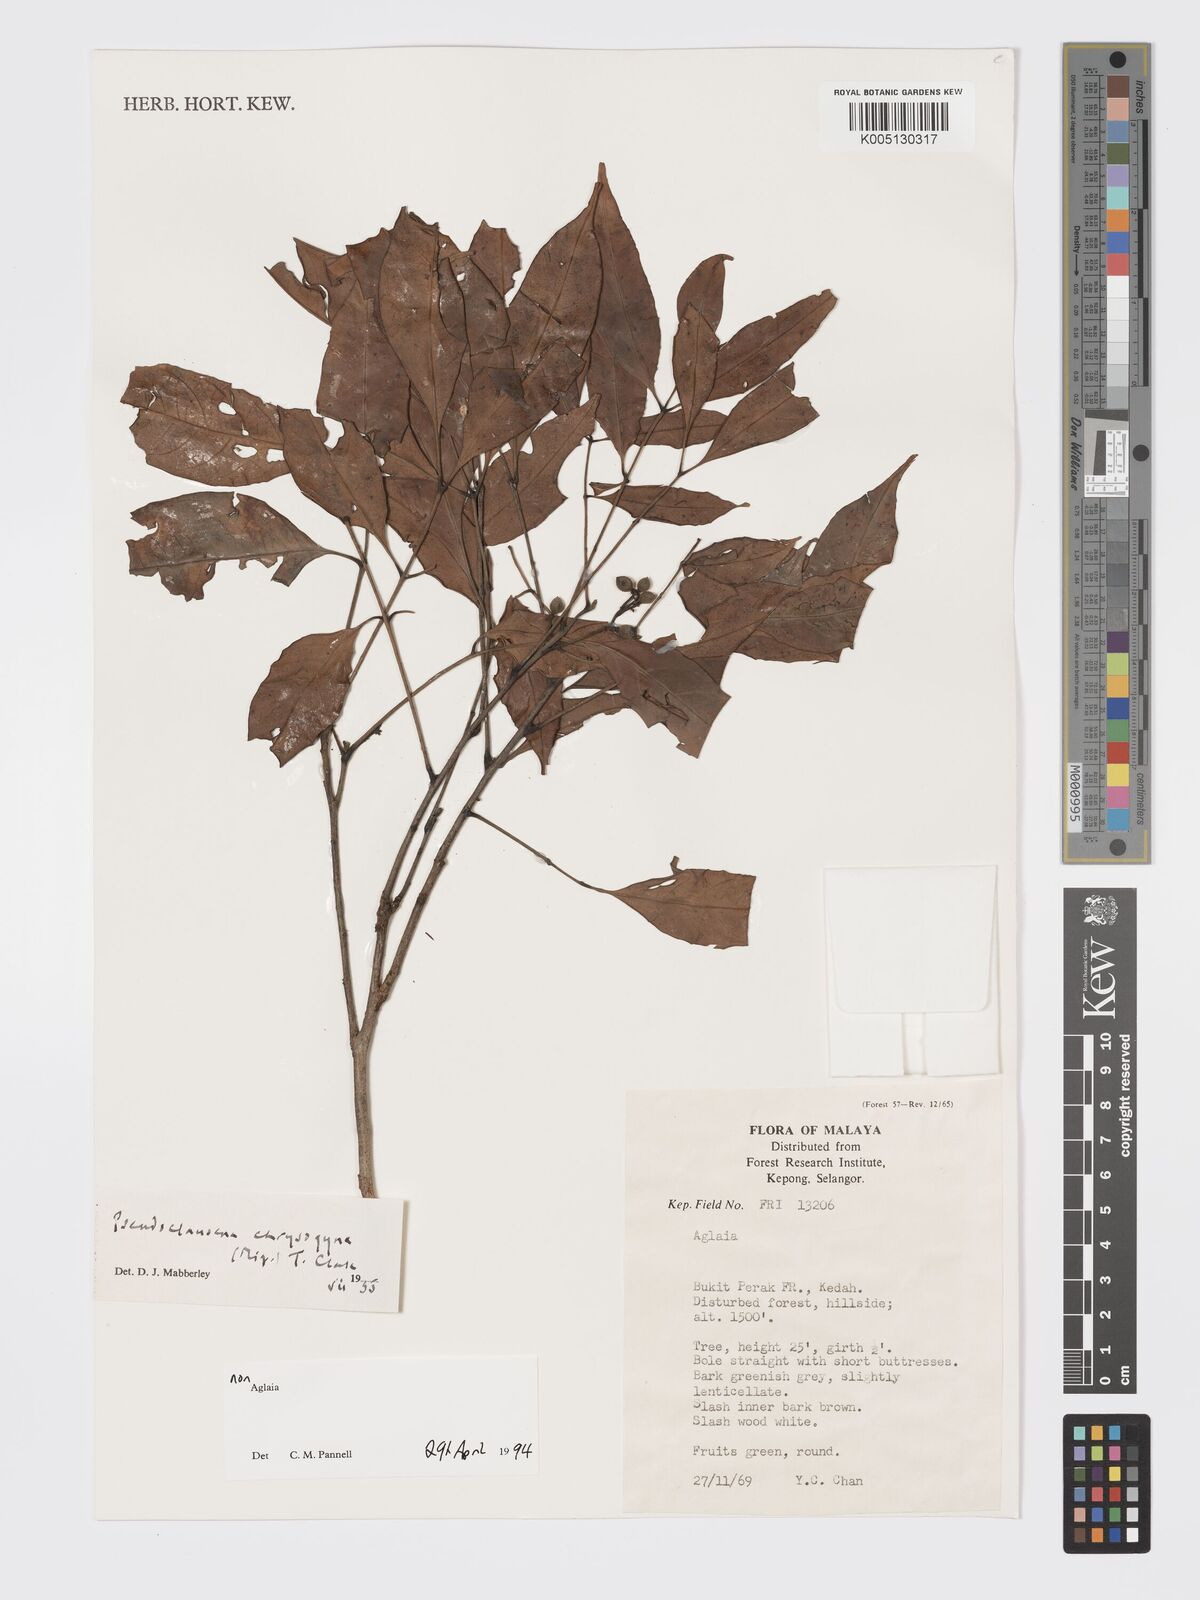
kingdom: Plantae
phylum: Tracheophyta
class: Magnoliopsida
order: Sapindales
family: Meliaceae
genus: Pseudoclausena
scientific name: Pseudoclausena chrysogyne
